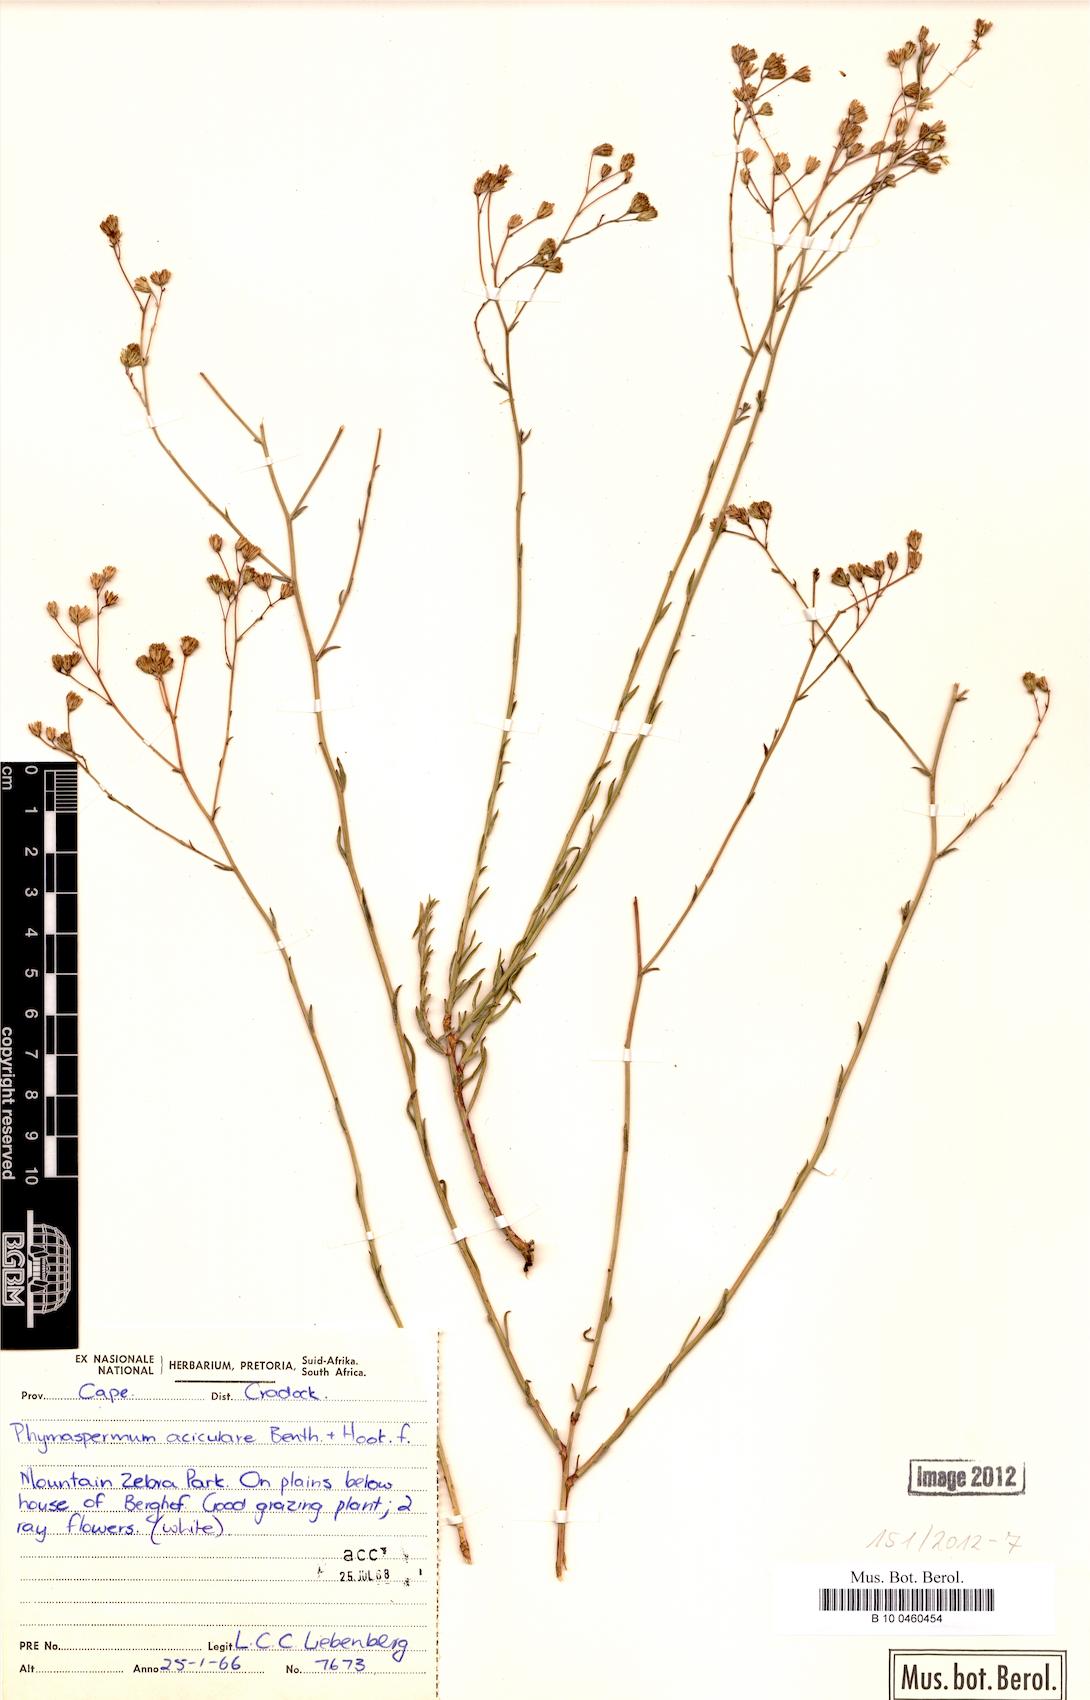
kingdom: Plantae
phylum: Tracheophyta
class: Magnoliopsida
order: Asterales
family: Asteraceae
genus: Phymaspermum
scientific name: Phymaspermum aciculare
